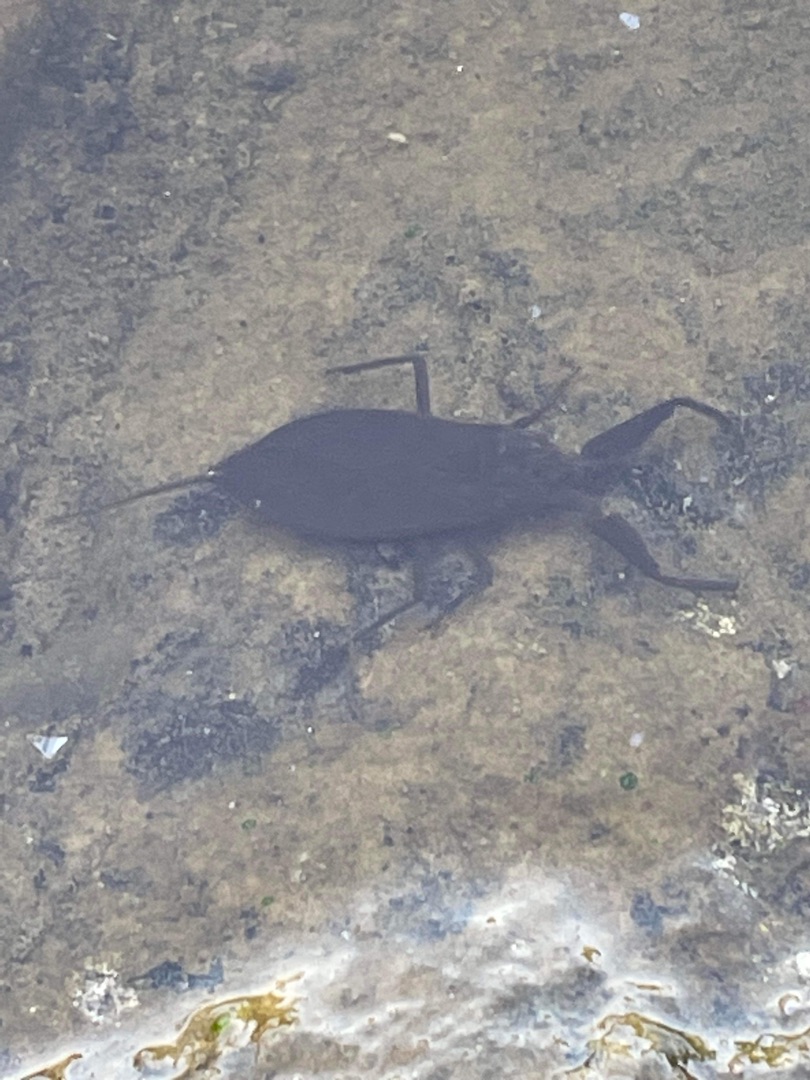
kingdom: Animalia
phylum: Arthropoda
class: Insecta
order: Hemiptera
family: Nepidae
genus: Nepa
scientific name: Nepa cinerea
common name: Skorpiontæge
